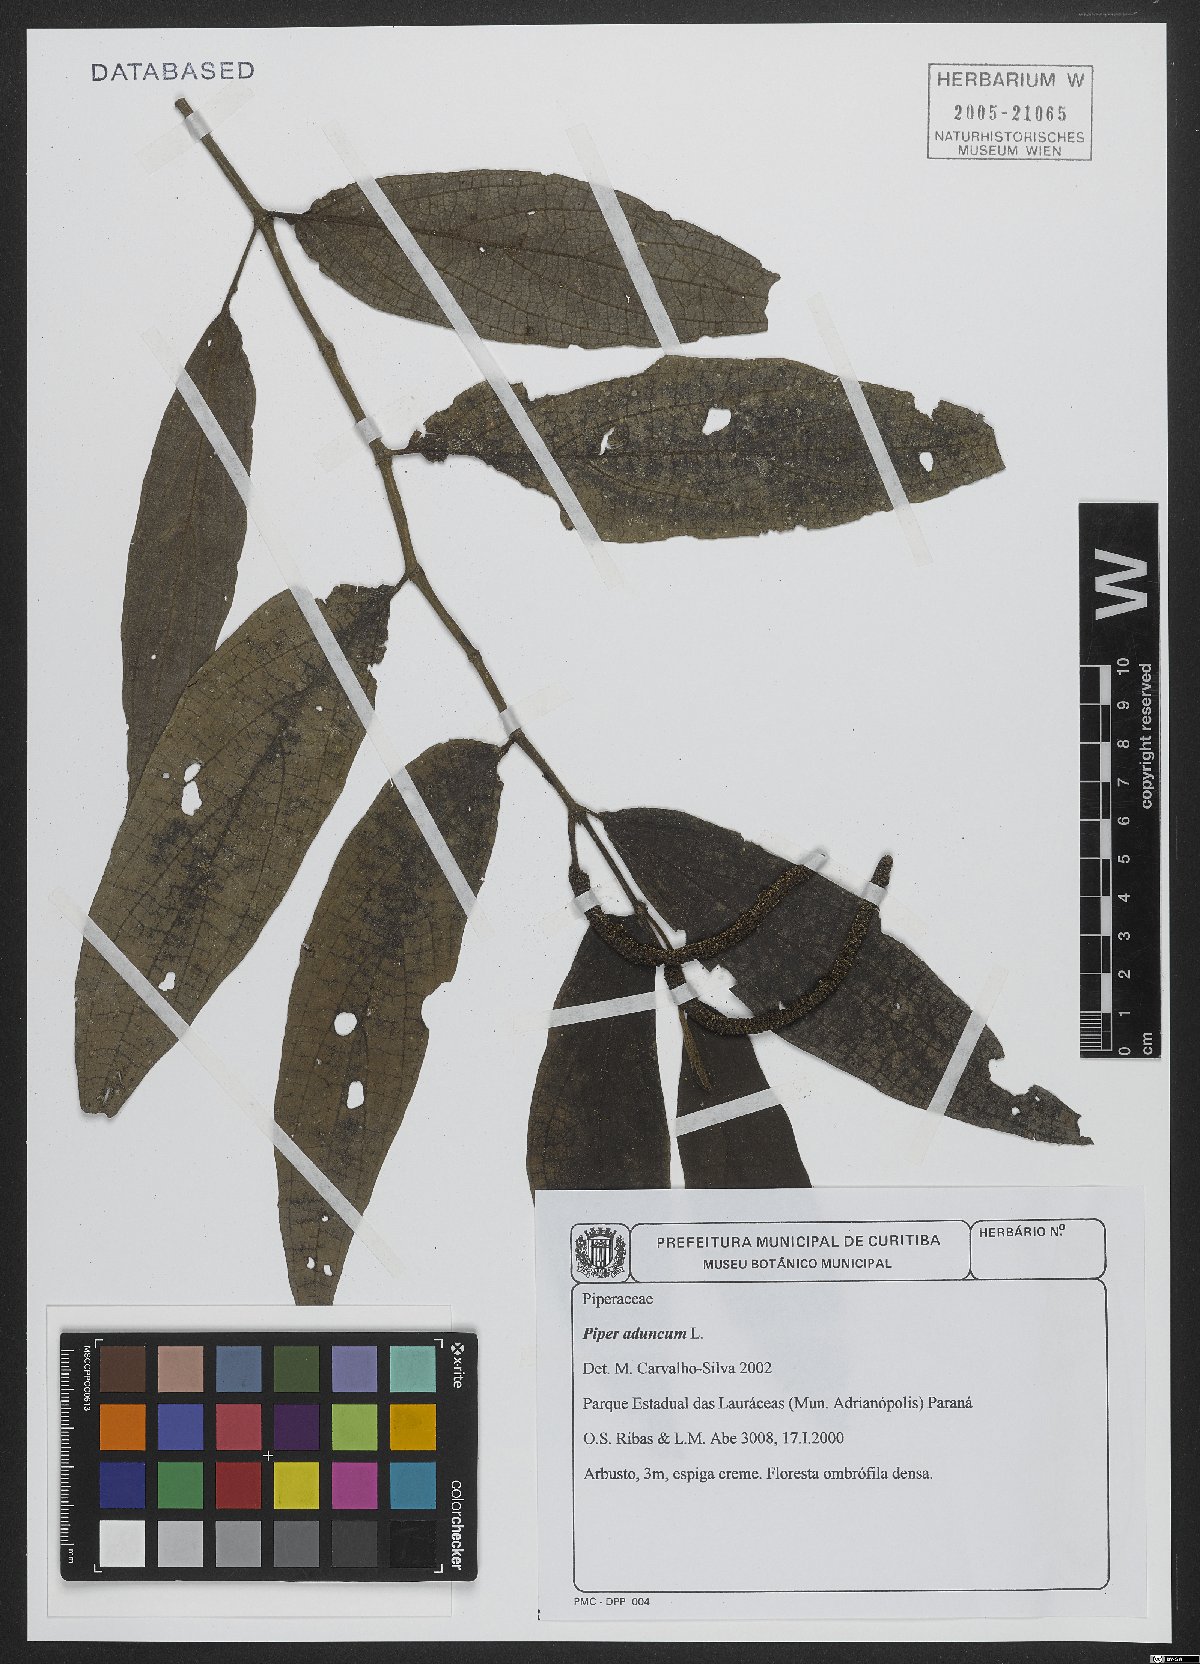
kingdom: Plantae
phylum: Tracheophyta
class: Magnoliopsida
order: Piperales
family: Piperaceae
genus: Piper
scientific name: Piper aduncum
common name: Spiked pepper
